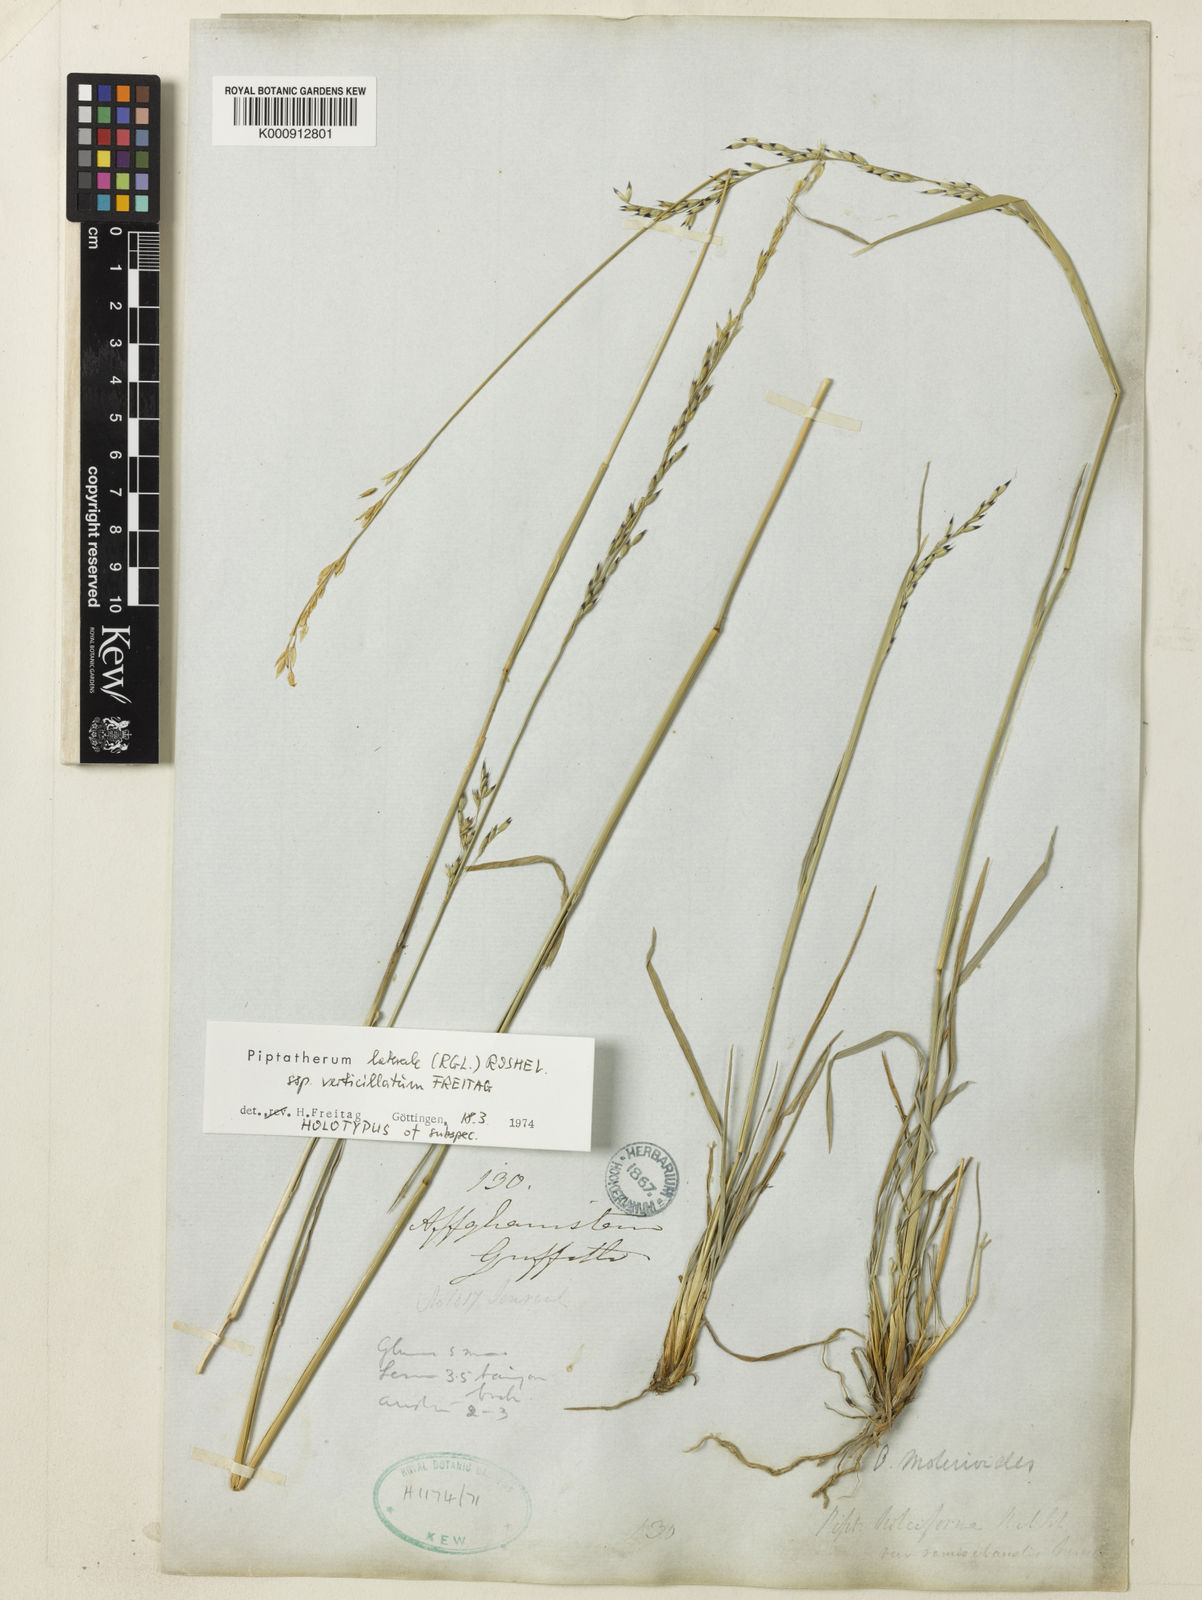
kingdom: Plantae
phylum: Tracheophyta
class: Liliopsida
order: Poales
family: Poaceae
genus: Piptatherum
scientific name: Piptatherum laterale
